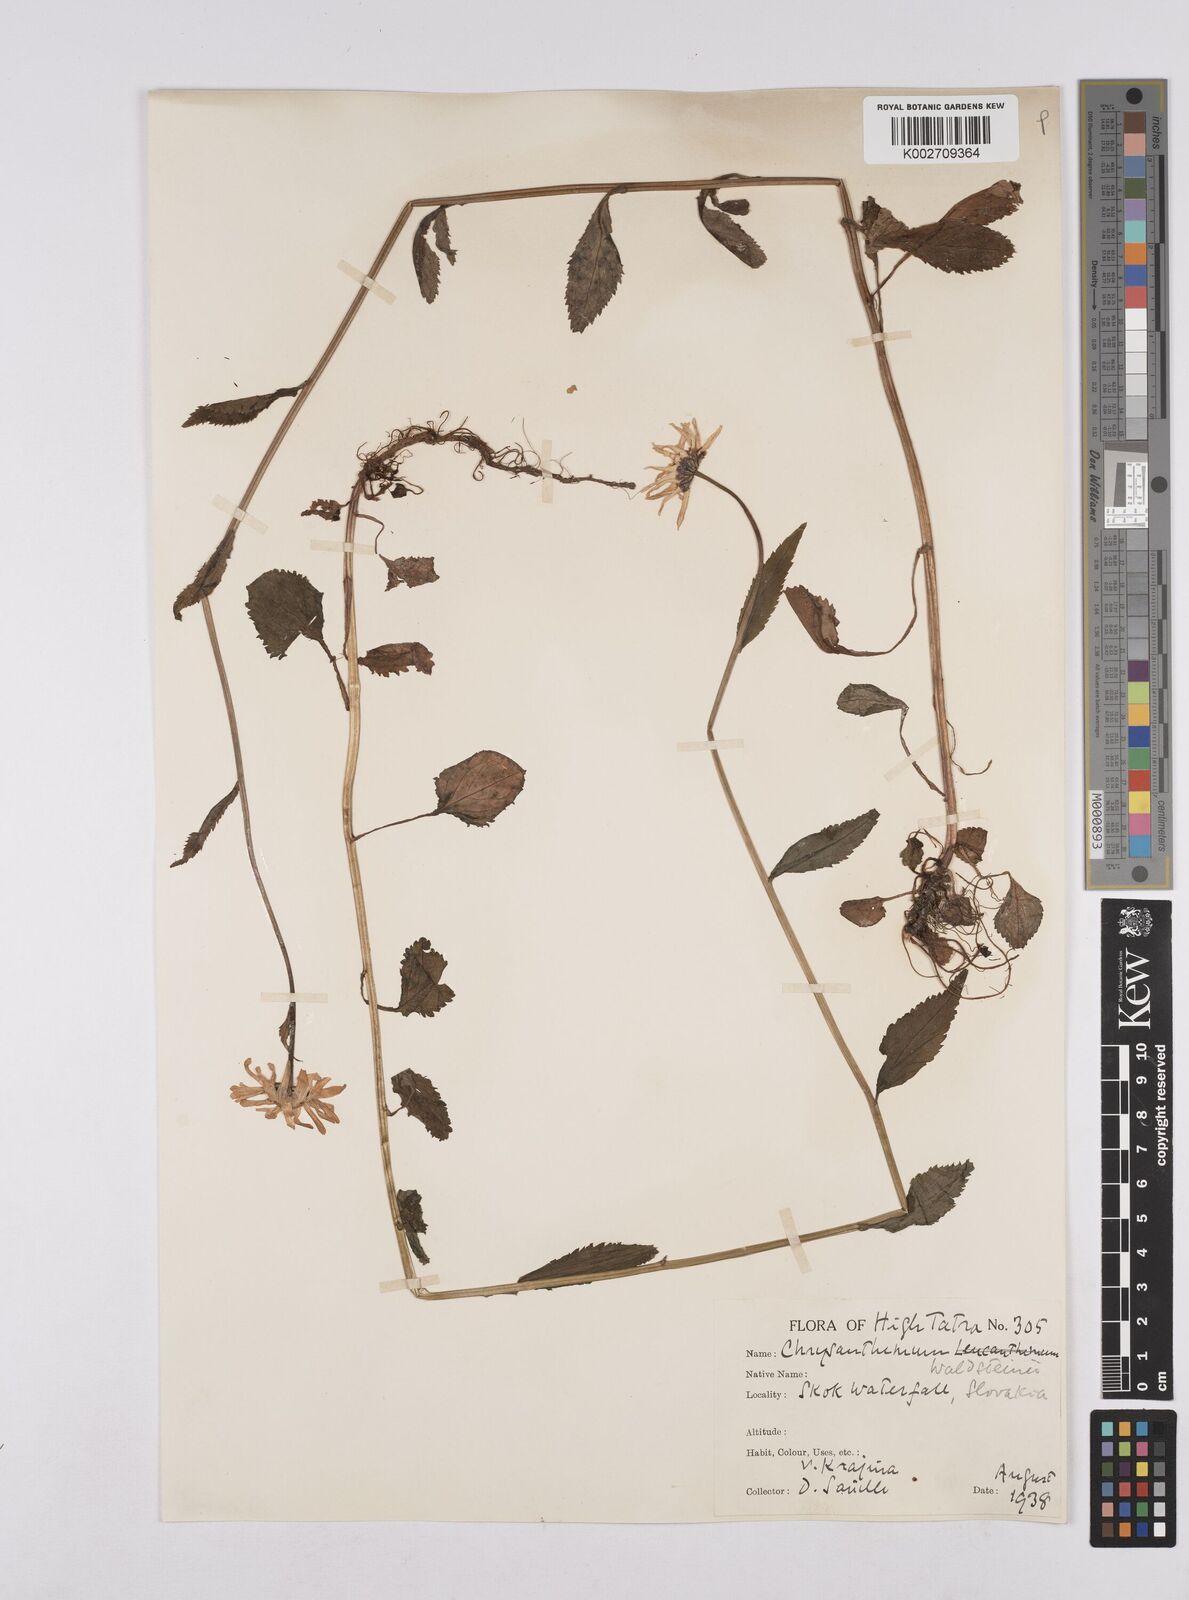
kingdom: Plantae
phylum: Tracheophyta
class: Magnoliopsida
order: Asterales
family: Asteraceae
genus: Leucanthemum
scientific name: Leucanthemum rotundifolium
